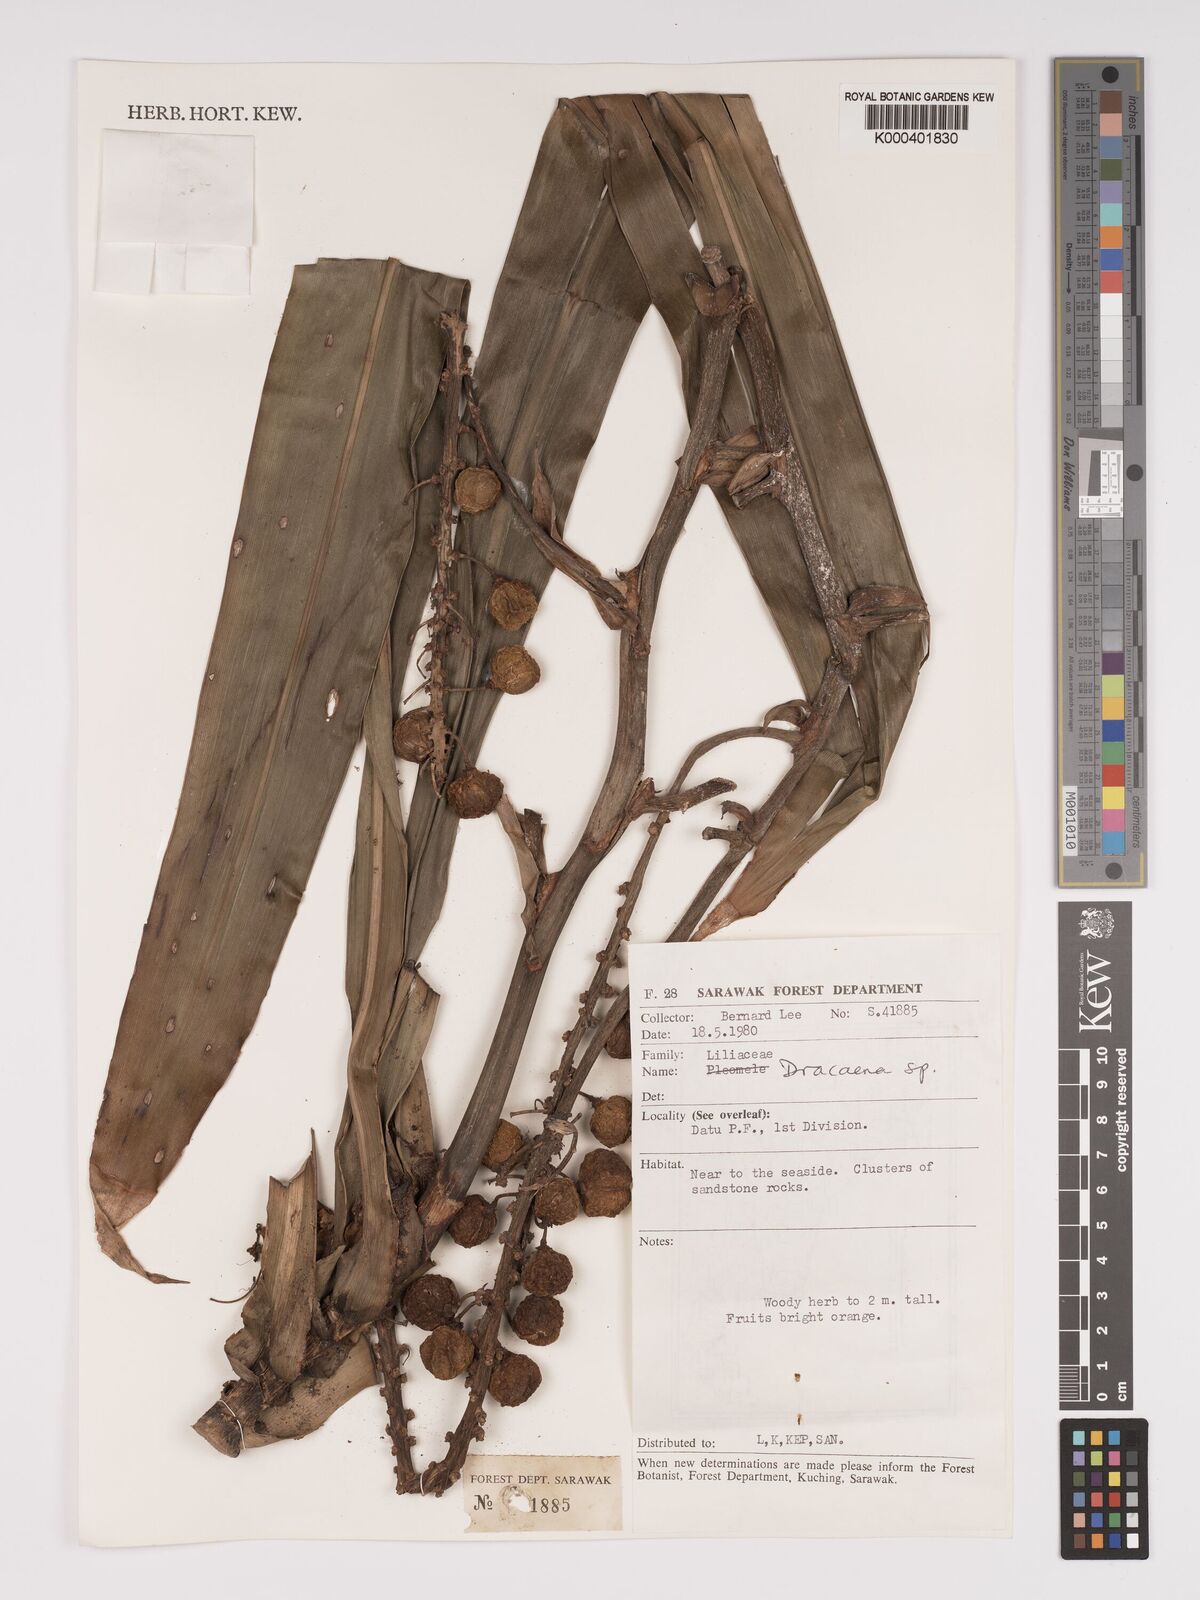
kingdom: Plantae
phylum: Tracheophyta
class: Liliopsida
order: Asparagales
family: Asparagaceae
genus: Dracaena
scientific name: Dracaena
